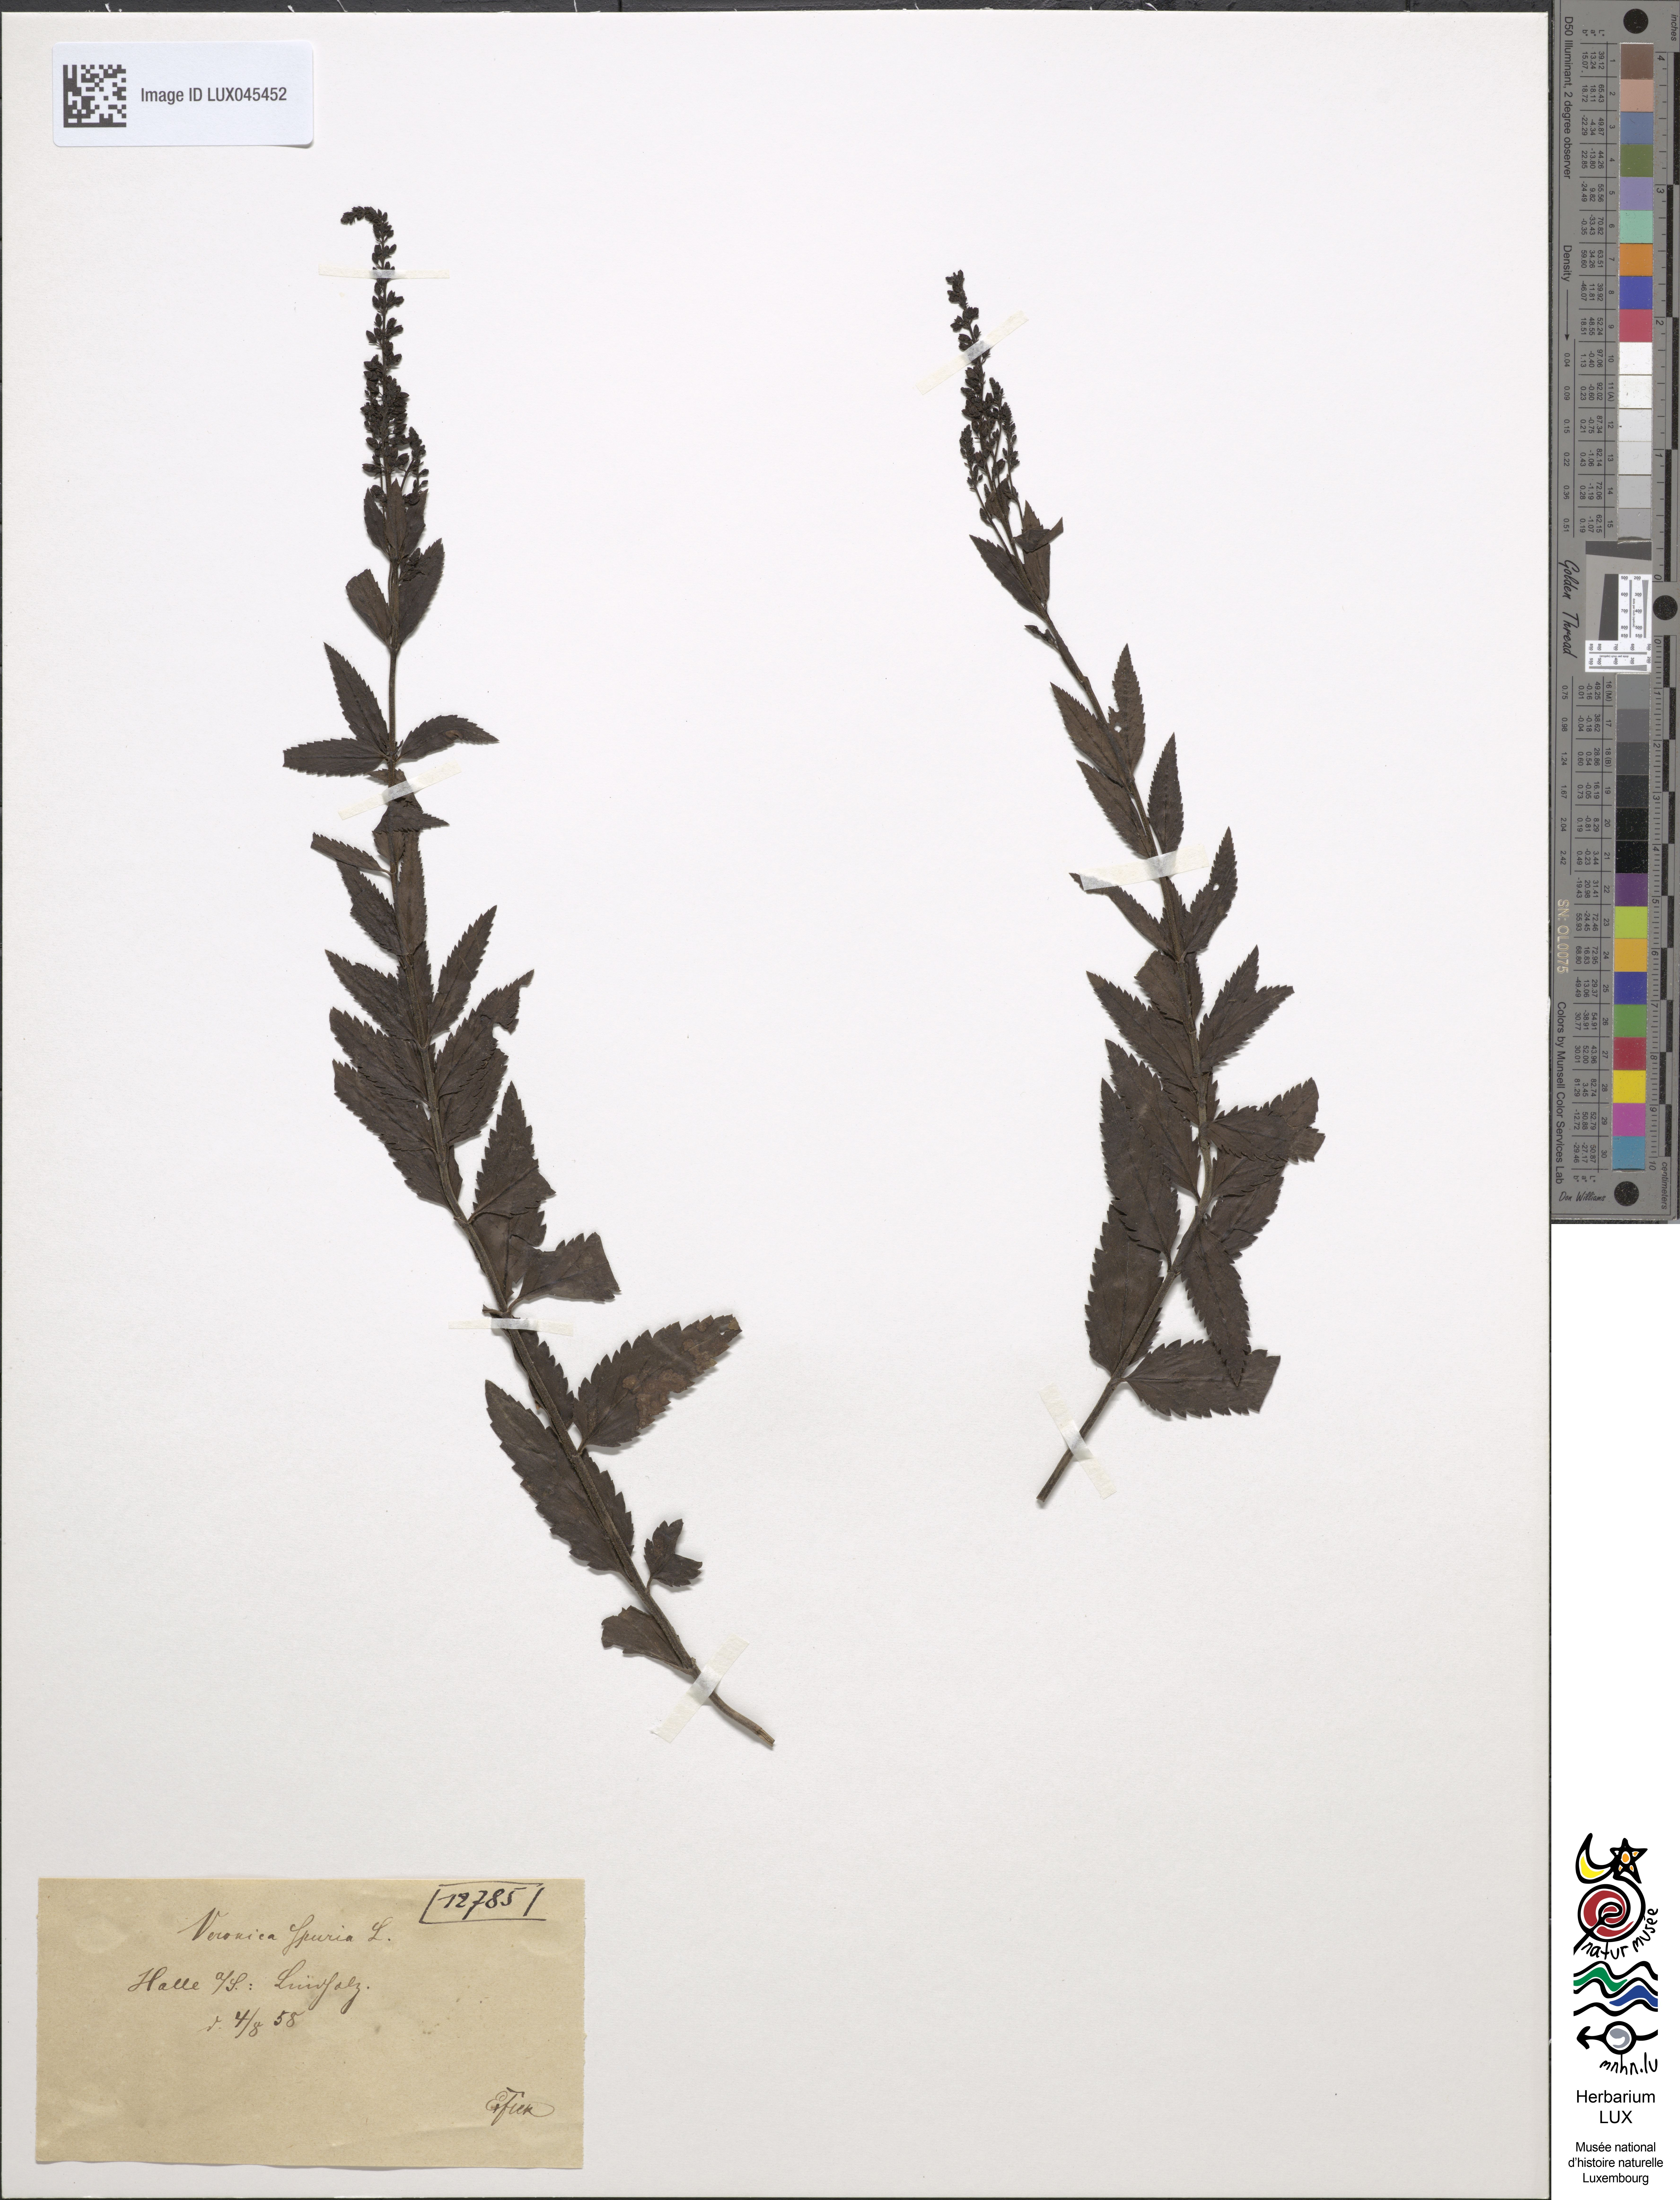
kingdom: Plantae
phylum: Tracheophyta
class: Magnoliopsida
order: Lamiales
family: Plantaginaceae
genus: Veronica
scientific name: Veronica spuria
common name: Bastard speedwell
